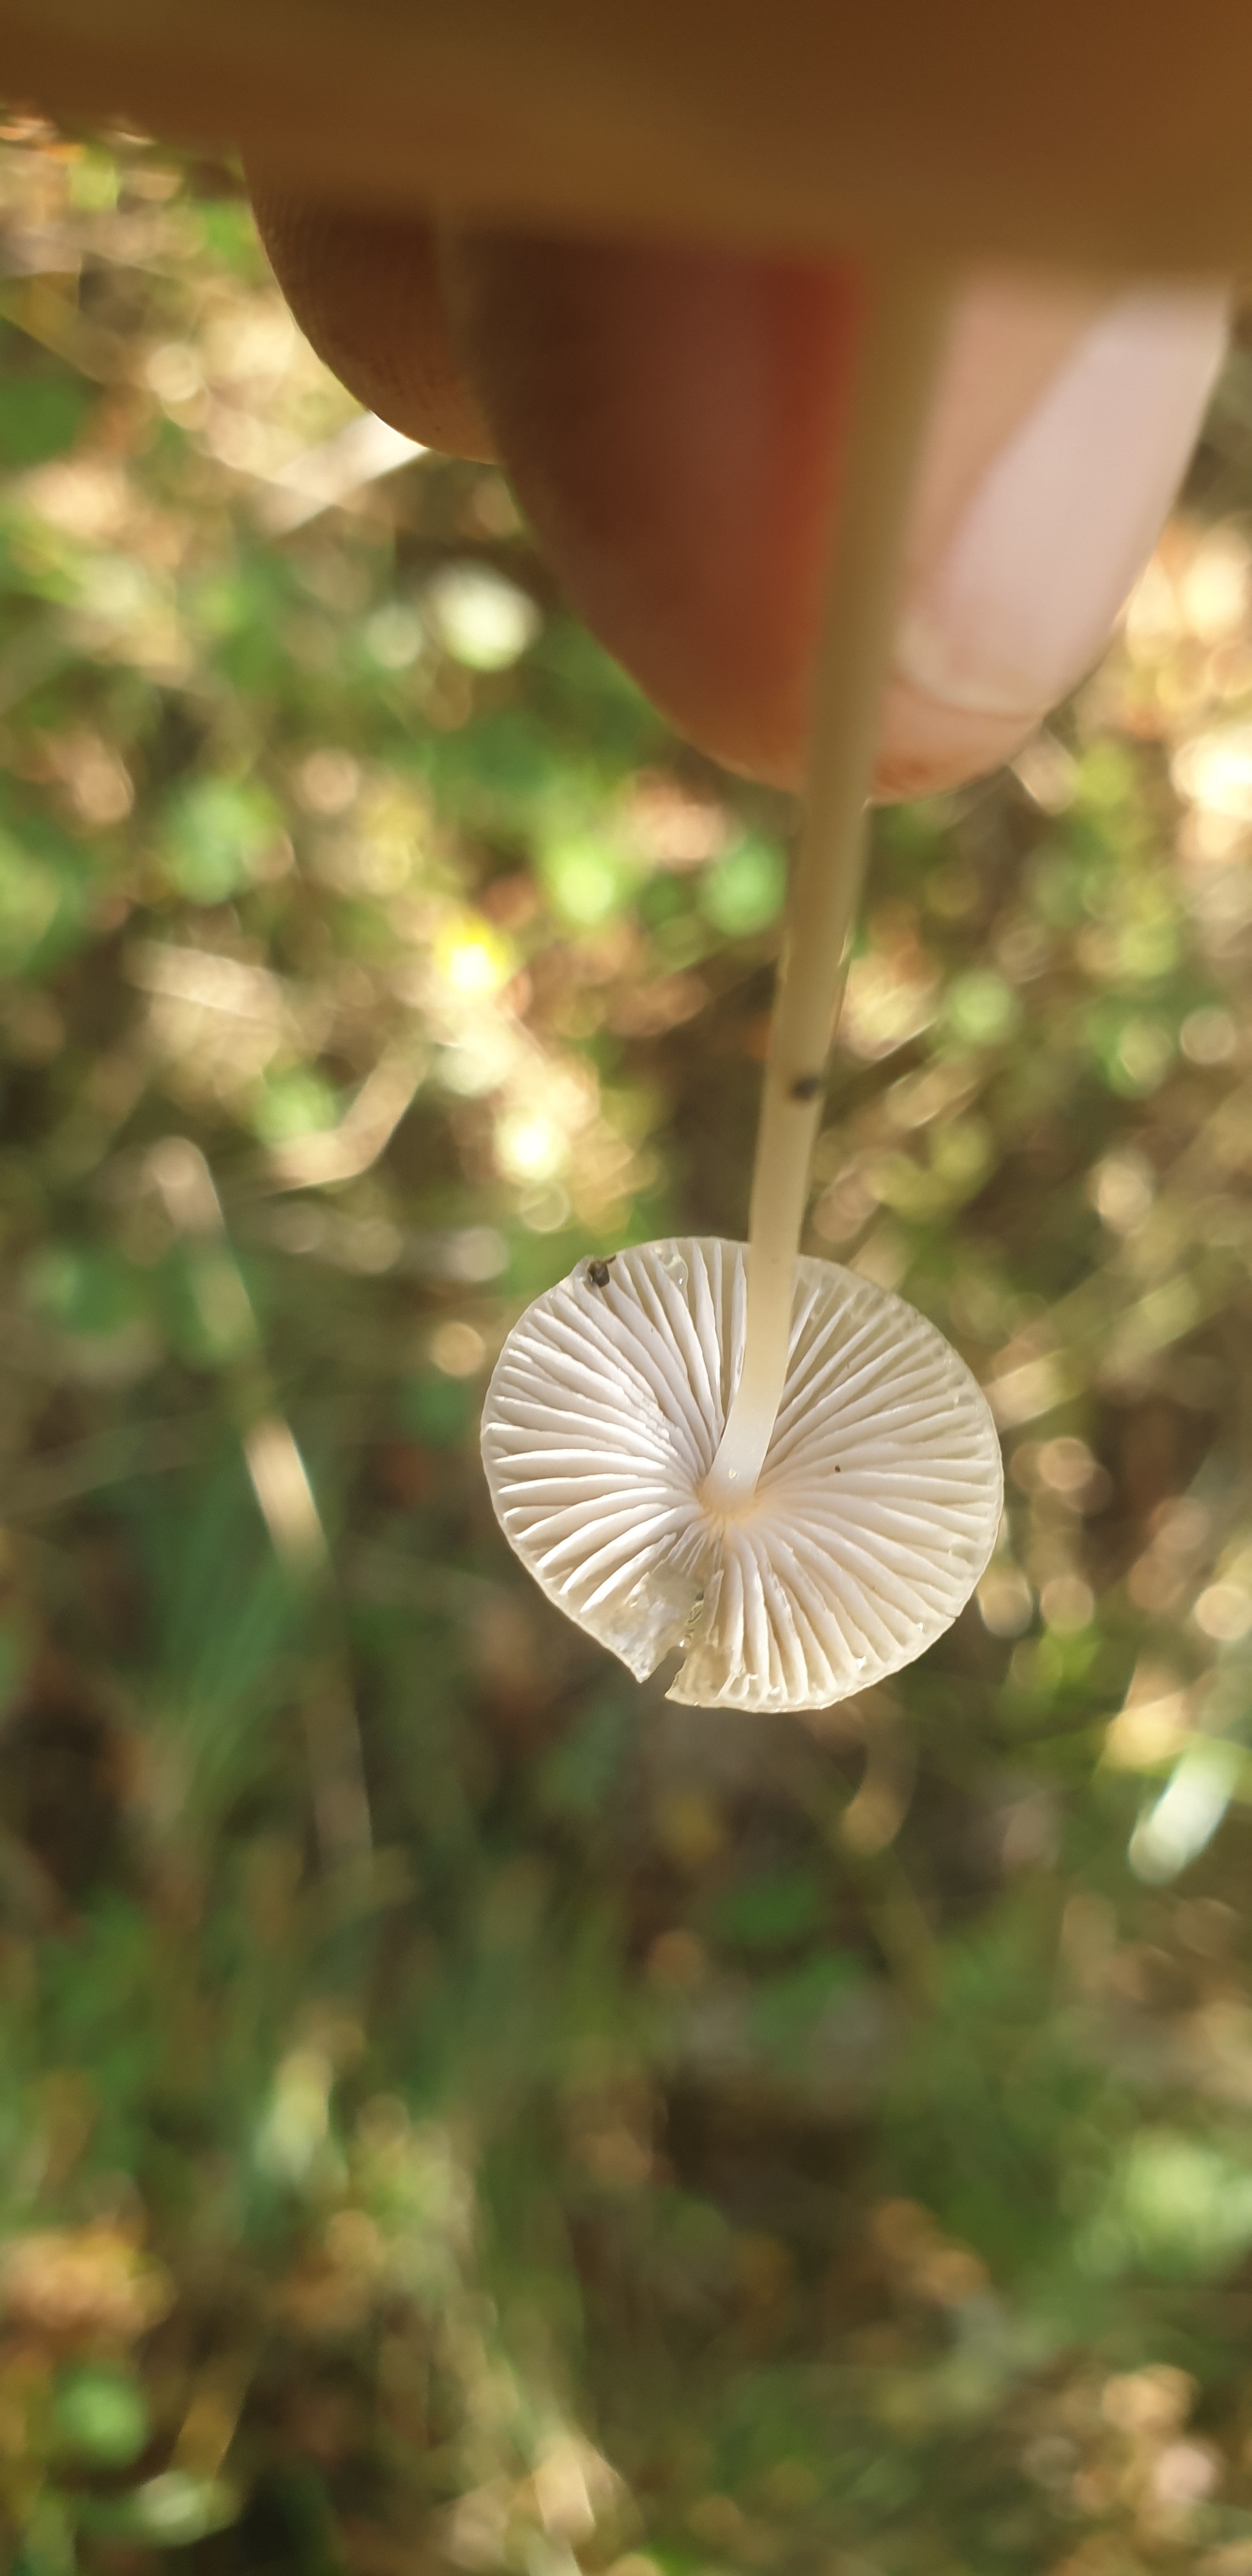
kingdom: Fungi
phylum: Basidiomycota
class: Agaricomycetes
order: Agaricales
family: Mycenaceae
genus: Mycena
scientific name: Mycena vitilis
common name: blankstokket huesvamp
